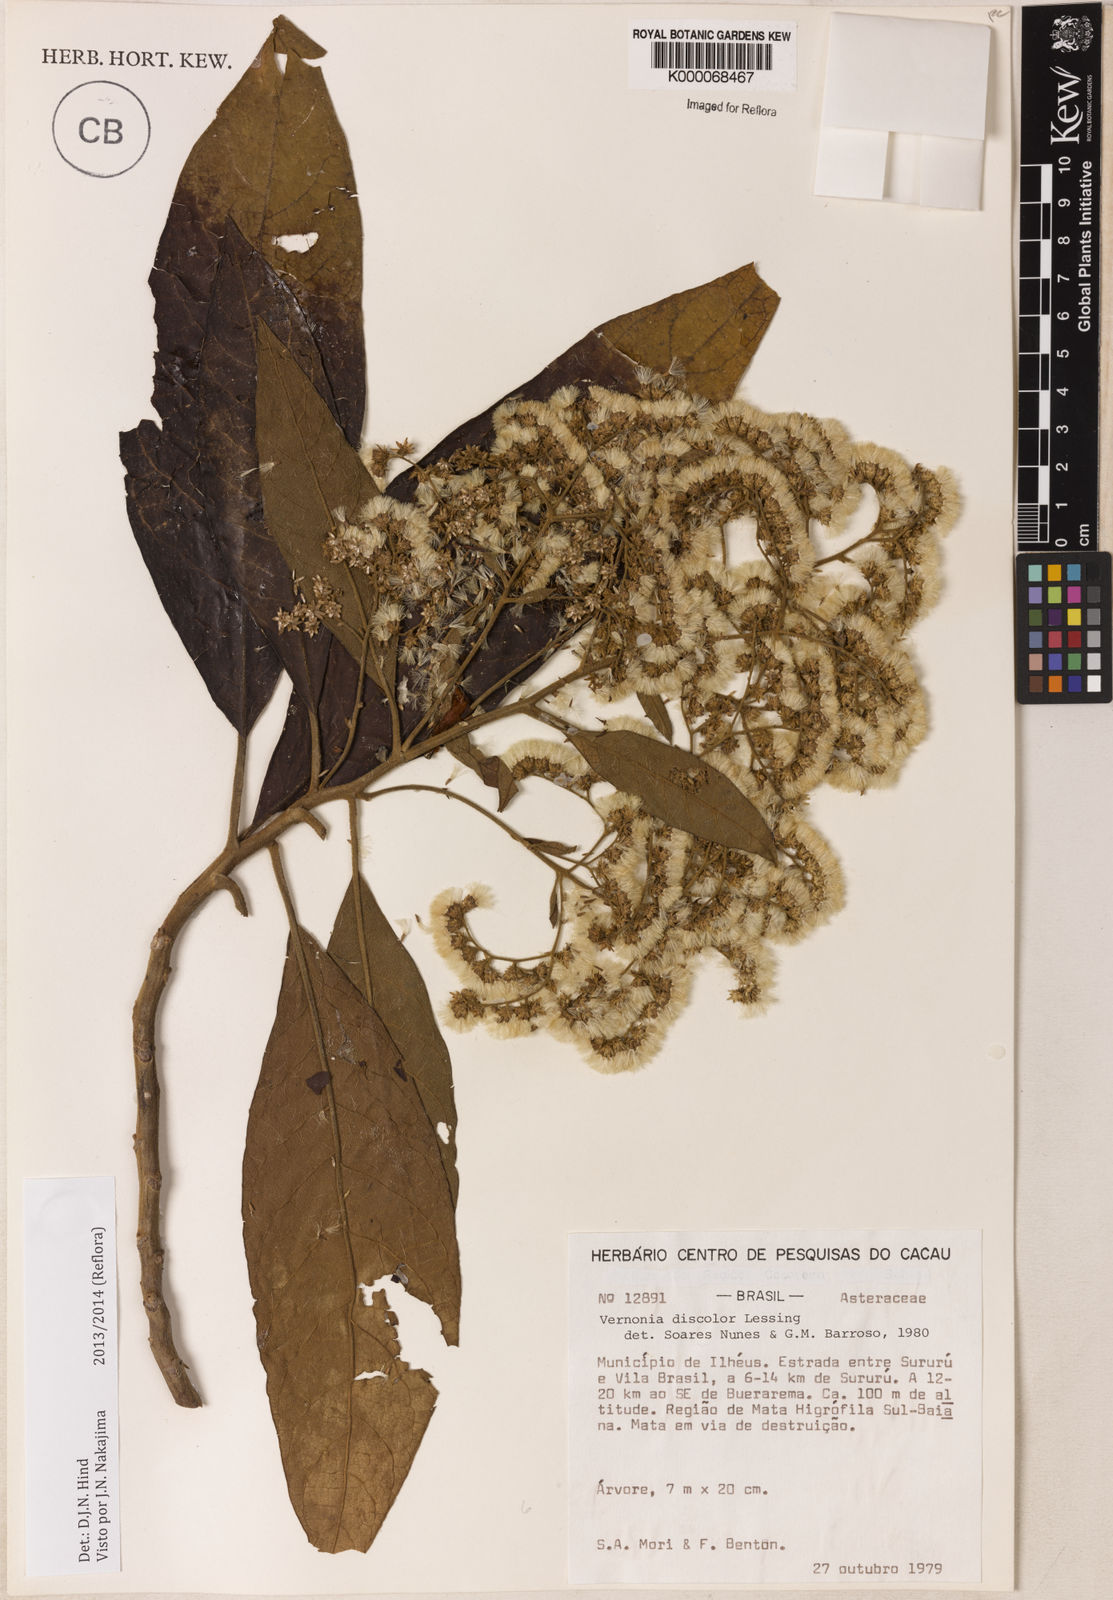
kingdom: Plantae
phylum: Tracheophyta
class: Magnoliopsida
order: Asterales
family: Asteraceae
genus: Vernonanthura
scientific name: Vernonanthura discolor
